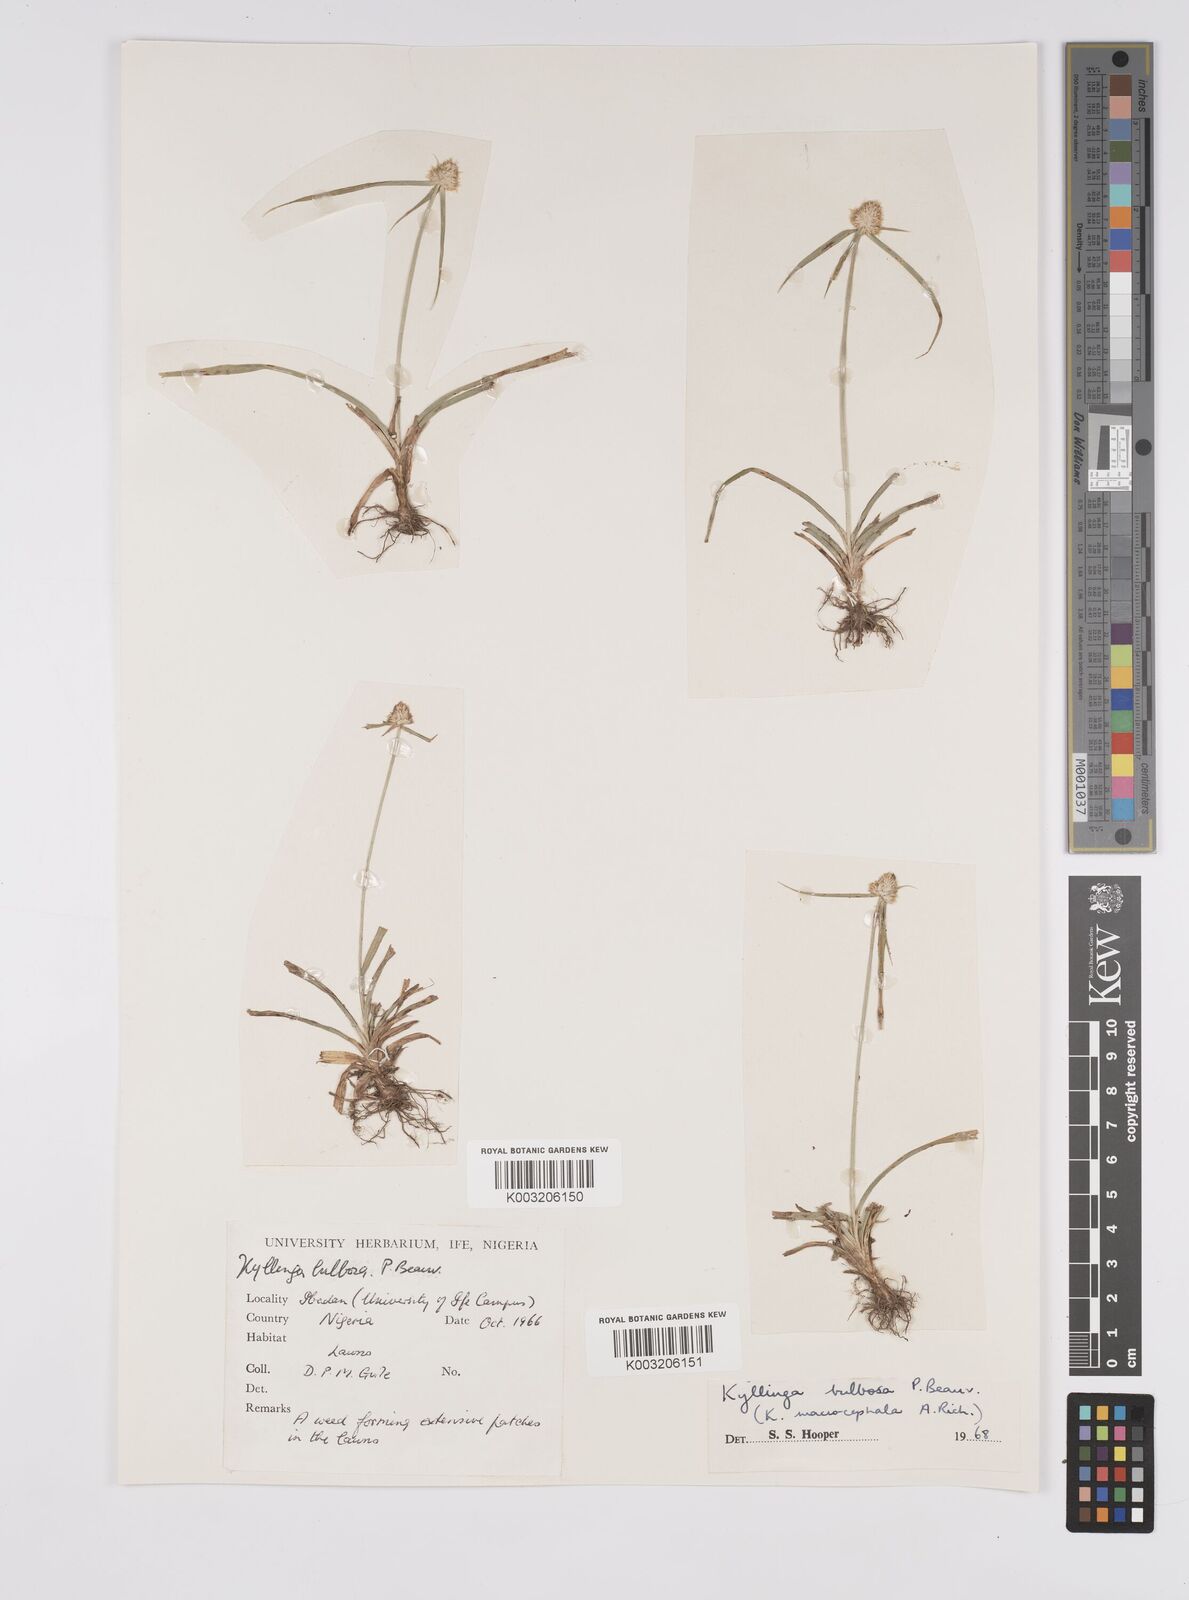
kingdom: Plantae
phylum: Tracheophyta
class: Liliopsida
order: Poales
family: Cyperaceae
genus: Cyperus
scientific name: Cyperus
